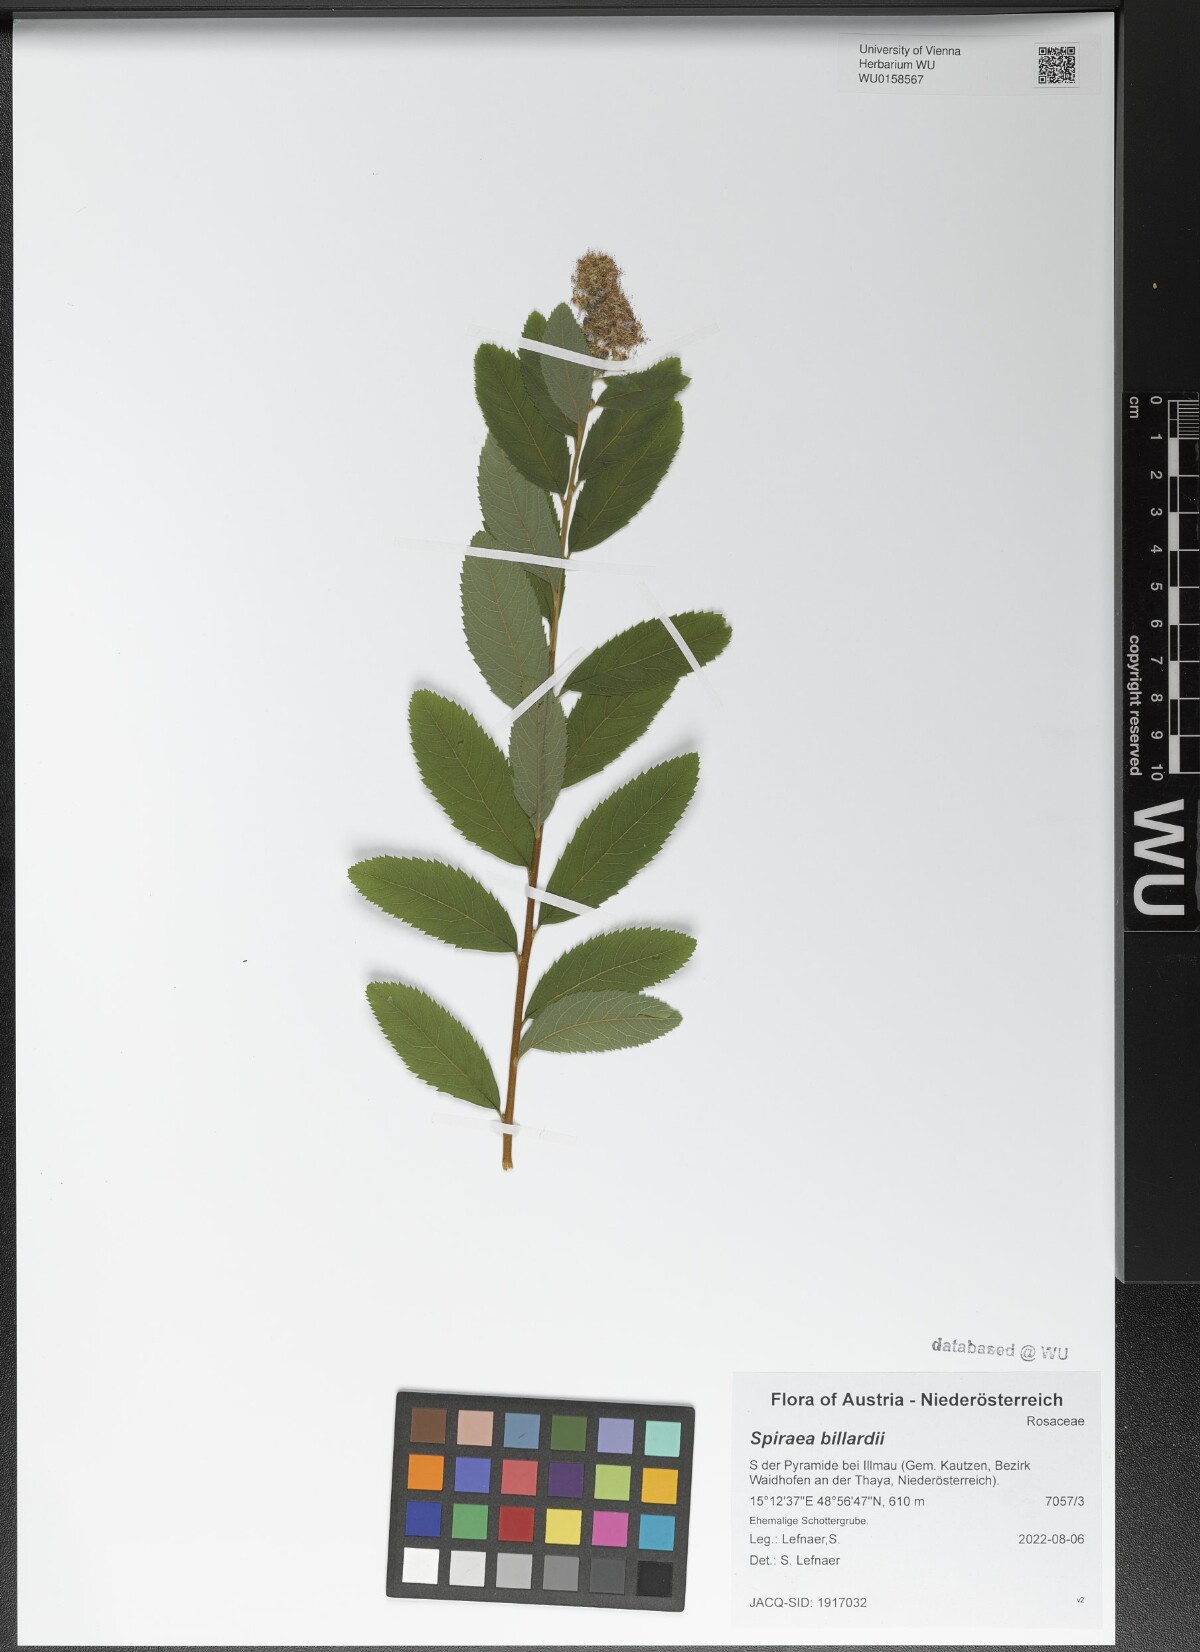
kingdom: Plantae
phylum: Tracheophyta
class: Magnoliopsida
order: Rosales
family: Rosaceae
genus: Spiraea
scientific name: Spiraea billardii
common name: Billard's bridewort
